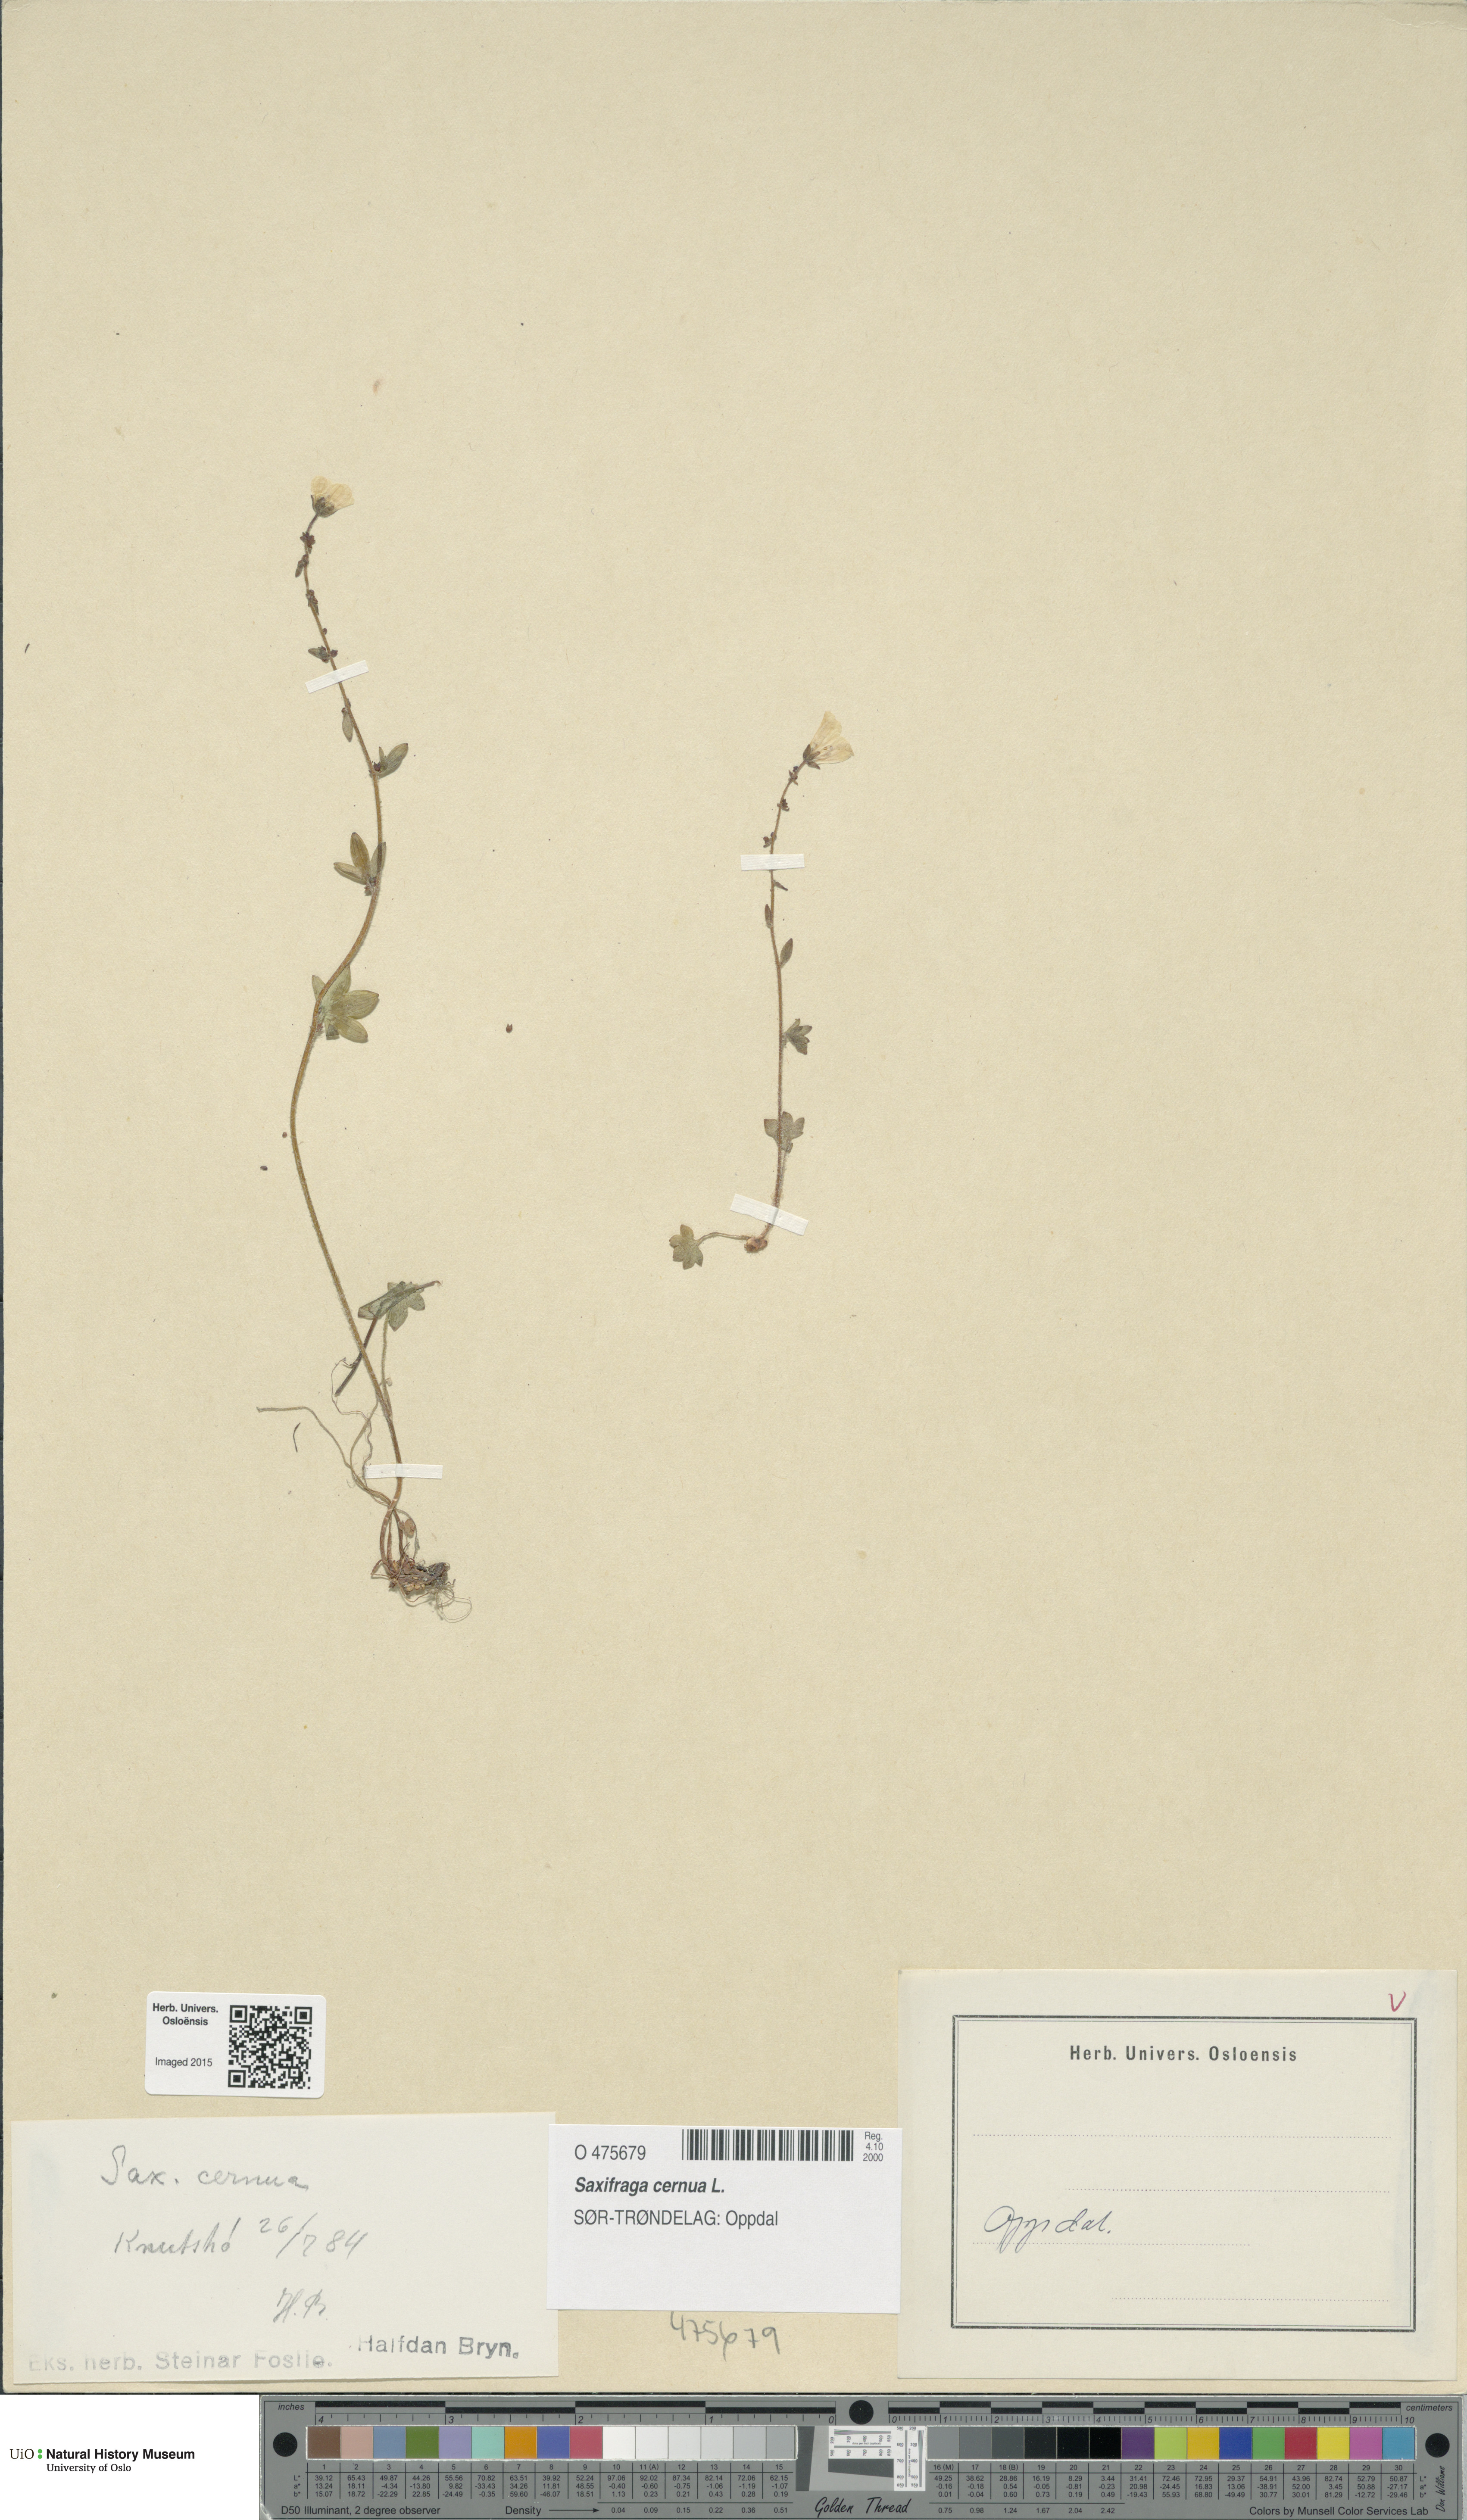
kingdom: Plantae
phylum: Tracheophyta
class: Magnoliopsida
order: Saxifragales
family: Saxifragaceae
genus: Saxifraga
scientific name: Saxifraga cernua
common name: Drooping saxifrage
